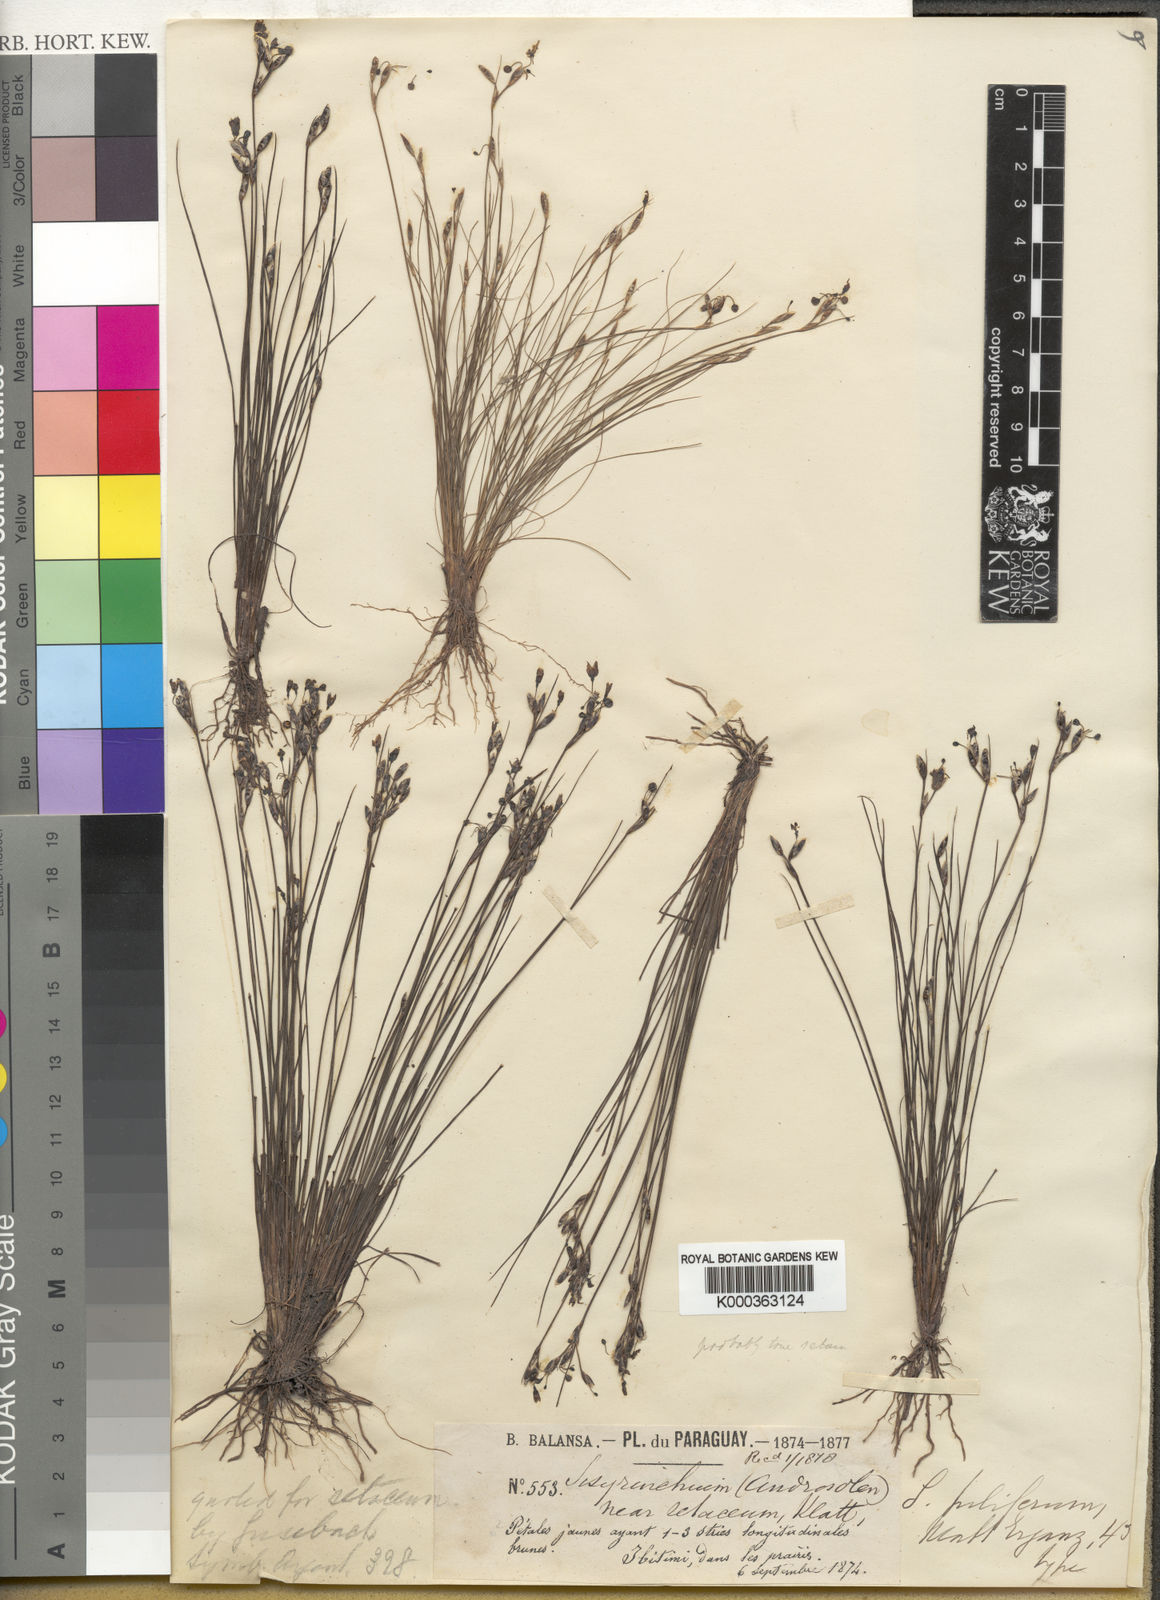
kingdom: Plantae
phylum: Tracheophyta
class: Liliopsida
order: Asparagales
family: Iridaceae
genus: Sisyrinchium
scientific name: Sisyrinchium
